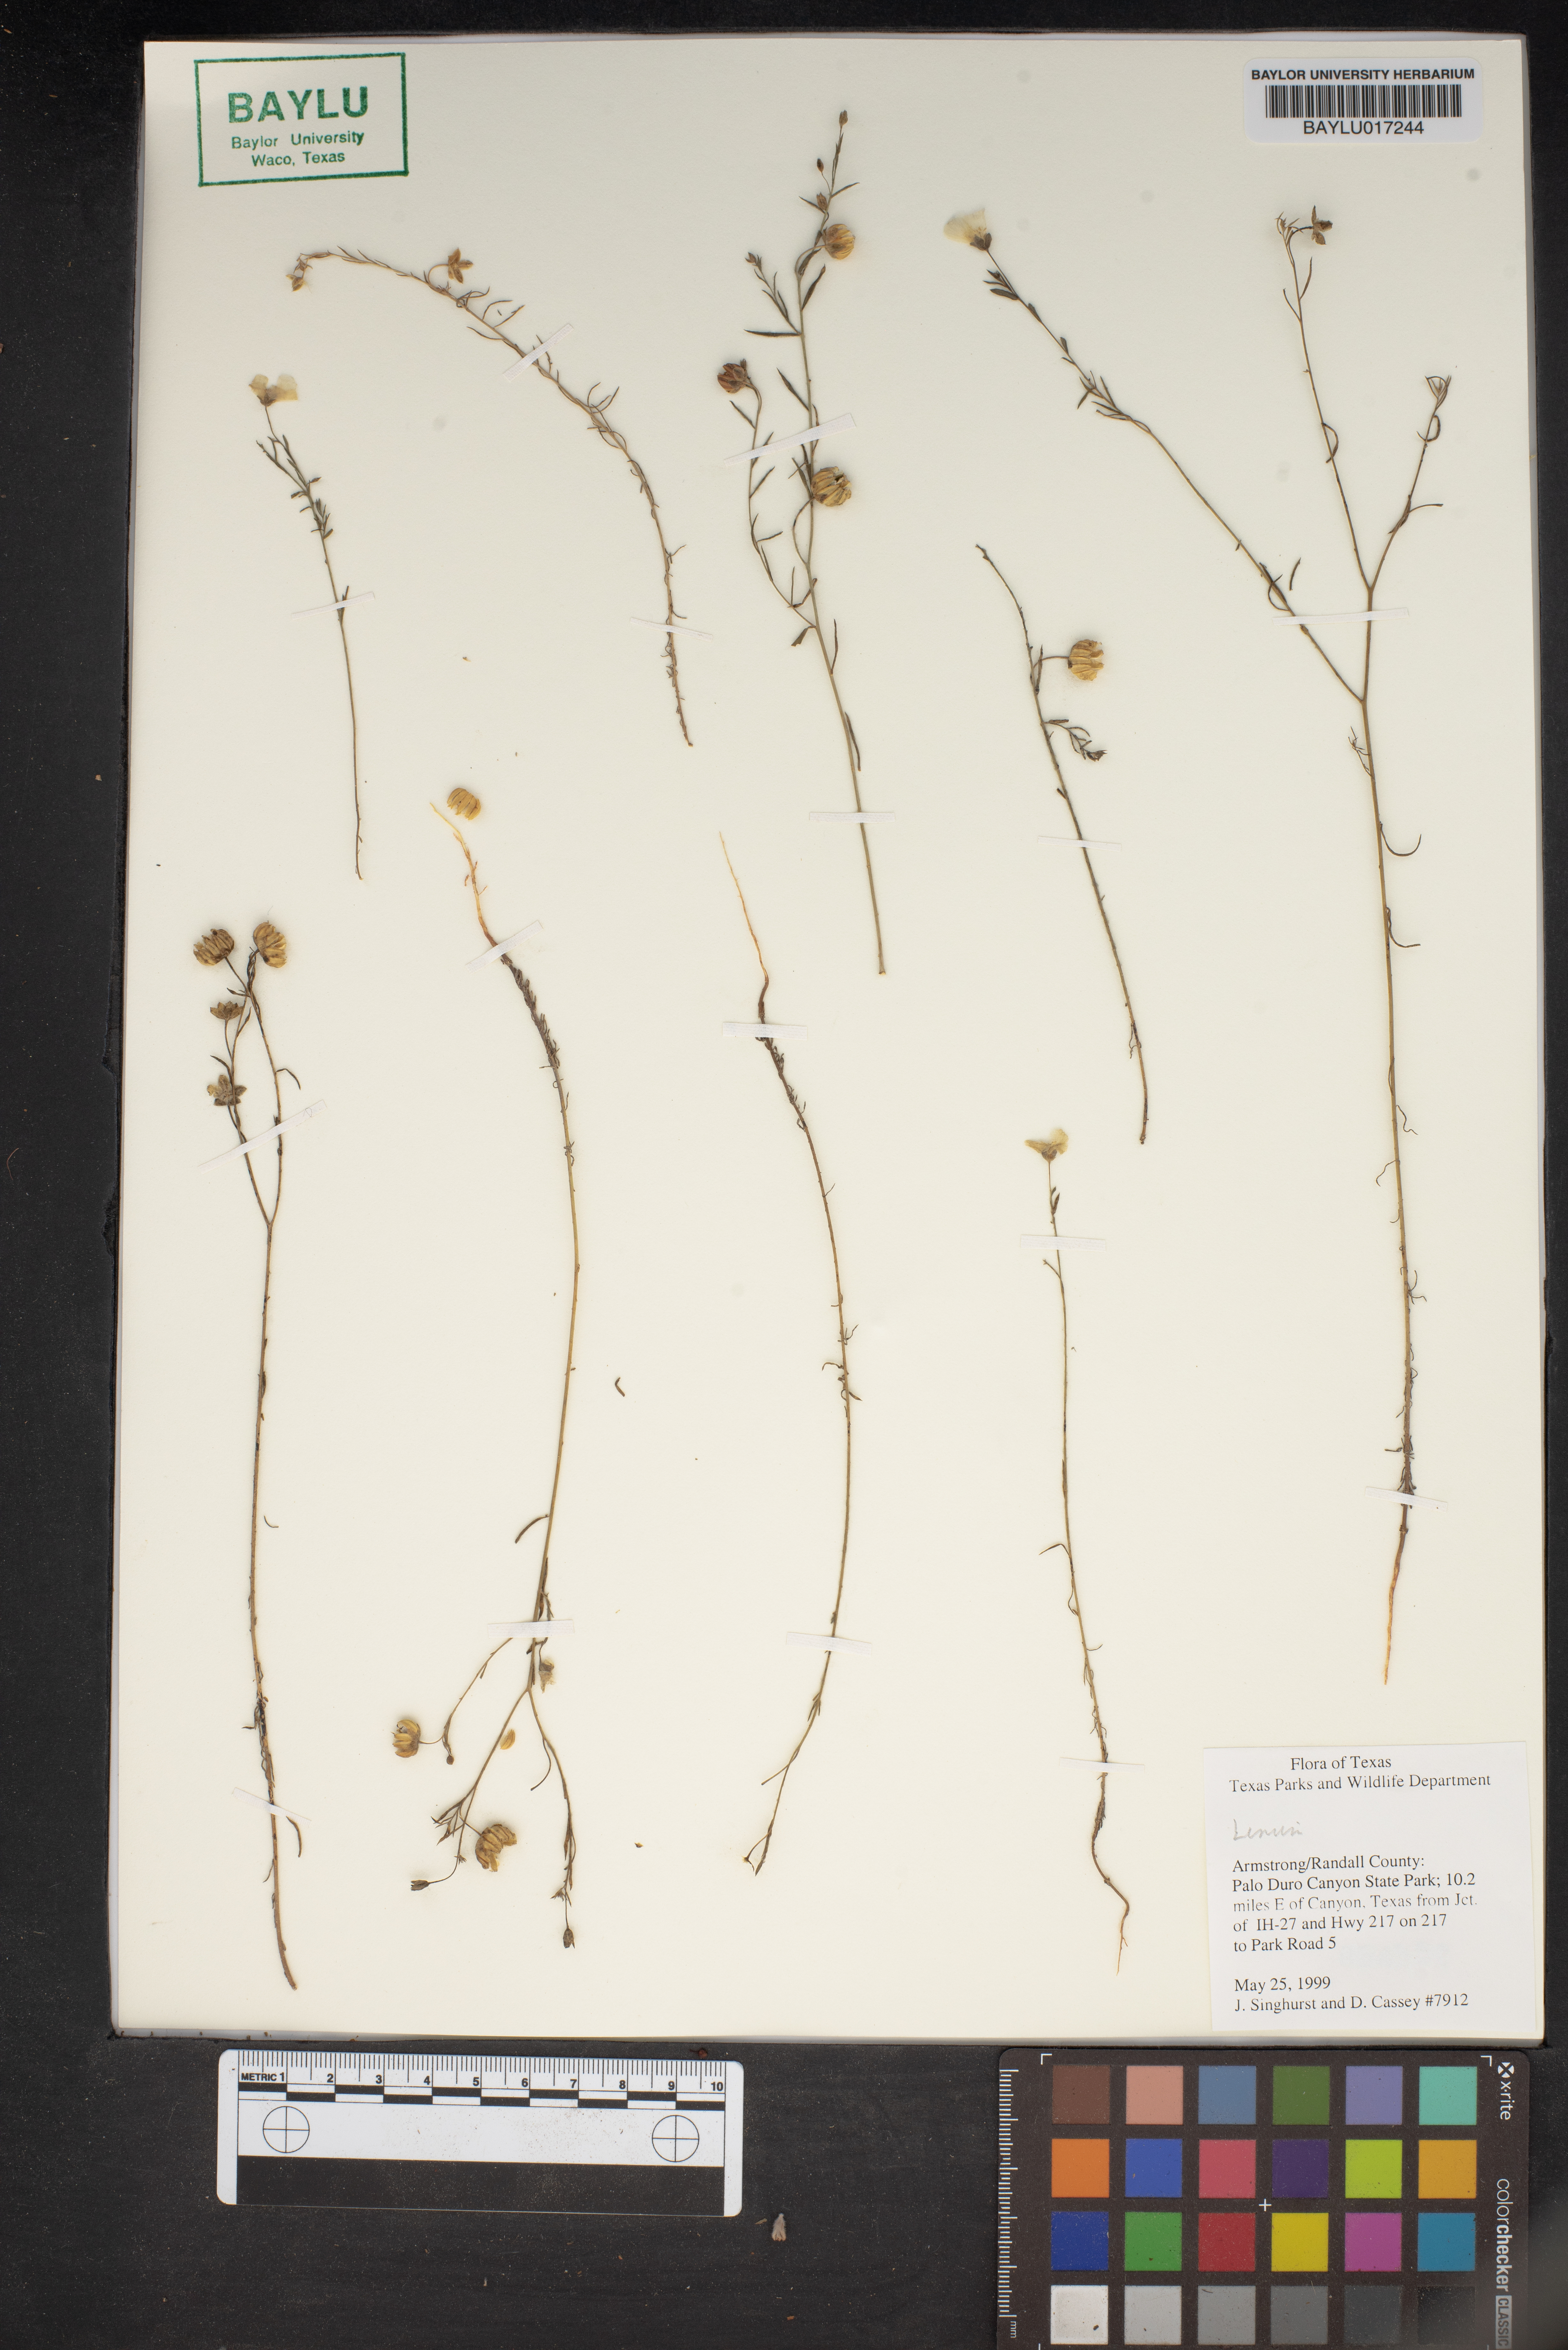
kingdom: Plantae
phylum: Tracheophyta
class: Magnoliopsida
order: Malpighiales
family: Linaceae
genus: Linum
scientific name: Linum
